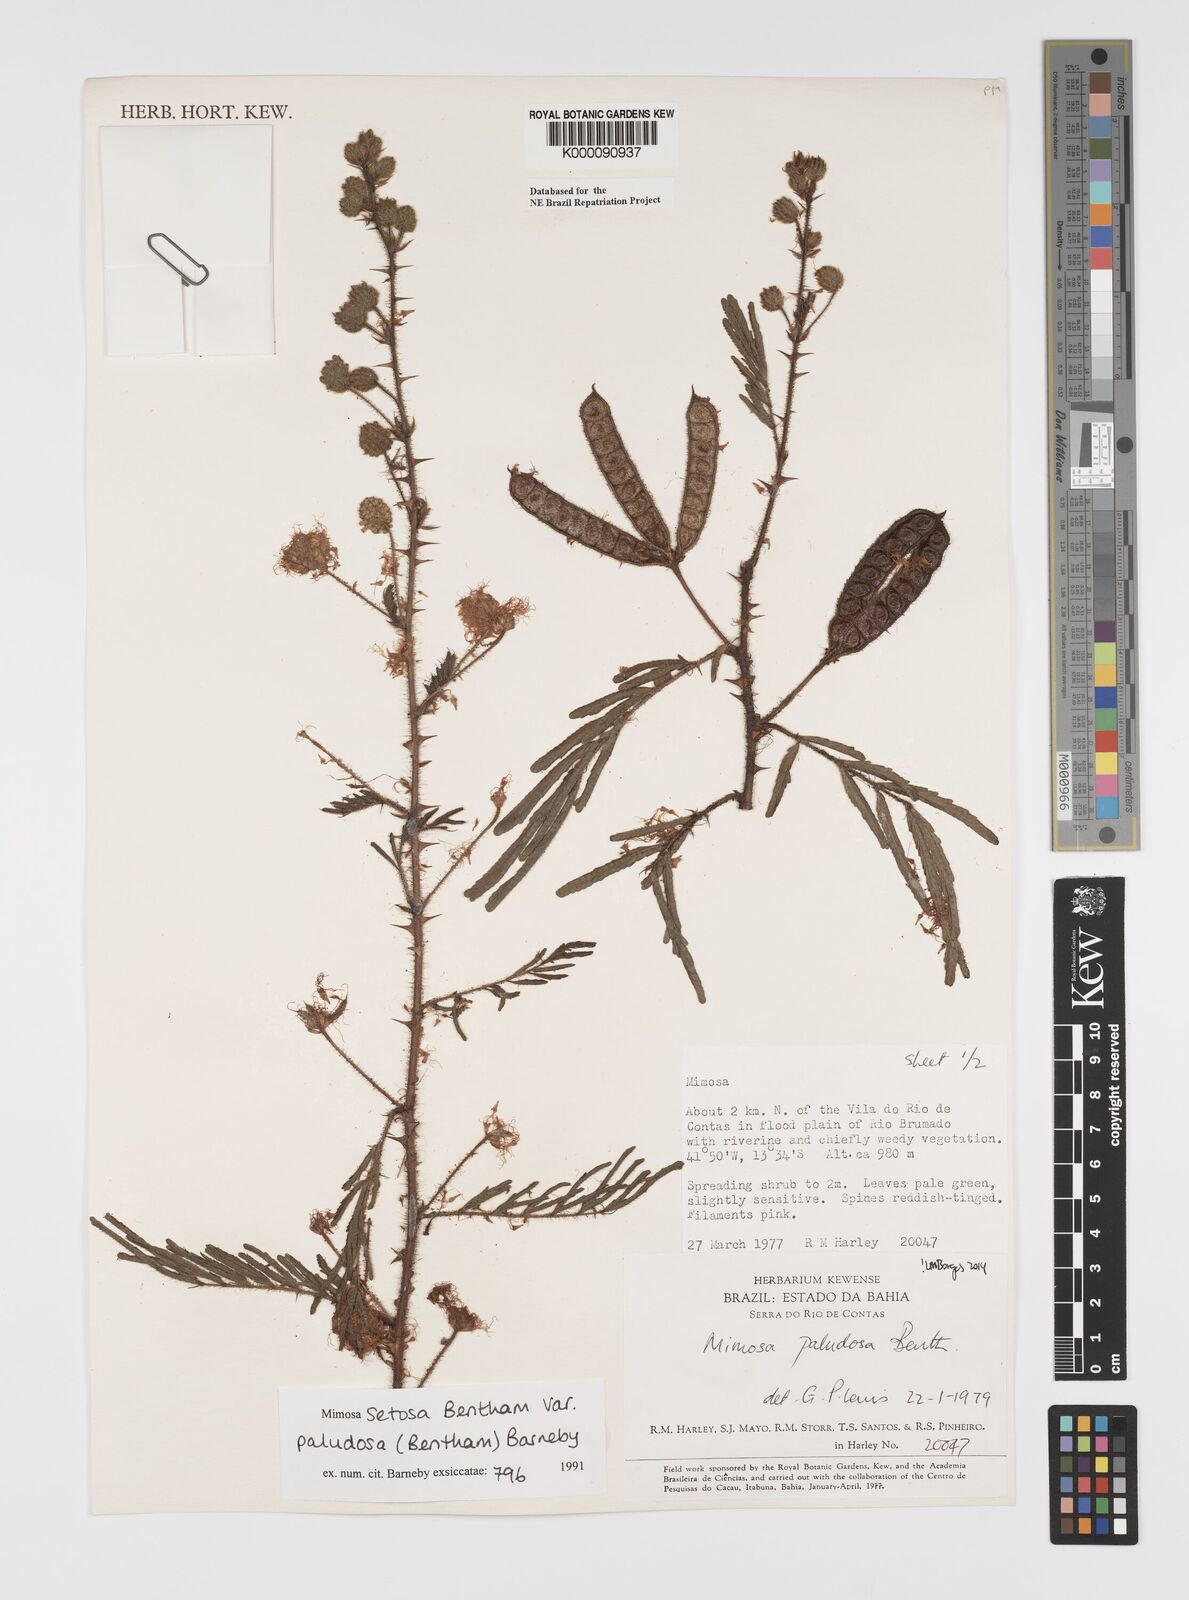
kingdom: Plantae
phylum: Tracheophyta
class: Magnoliopsida
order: Fabales
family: Fabaceae
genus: Mimosa
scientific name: Mimosa paludosa
